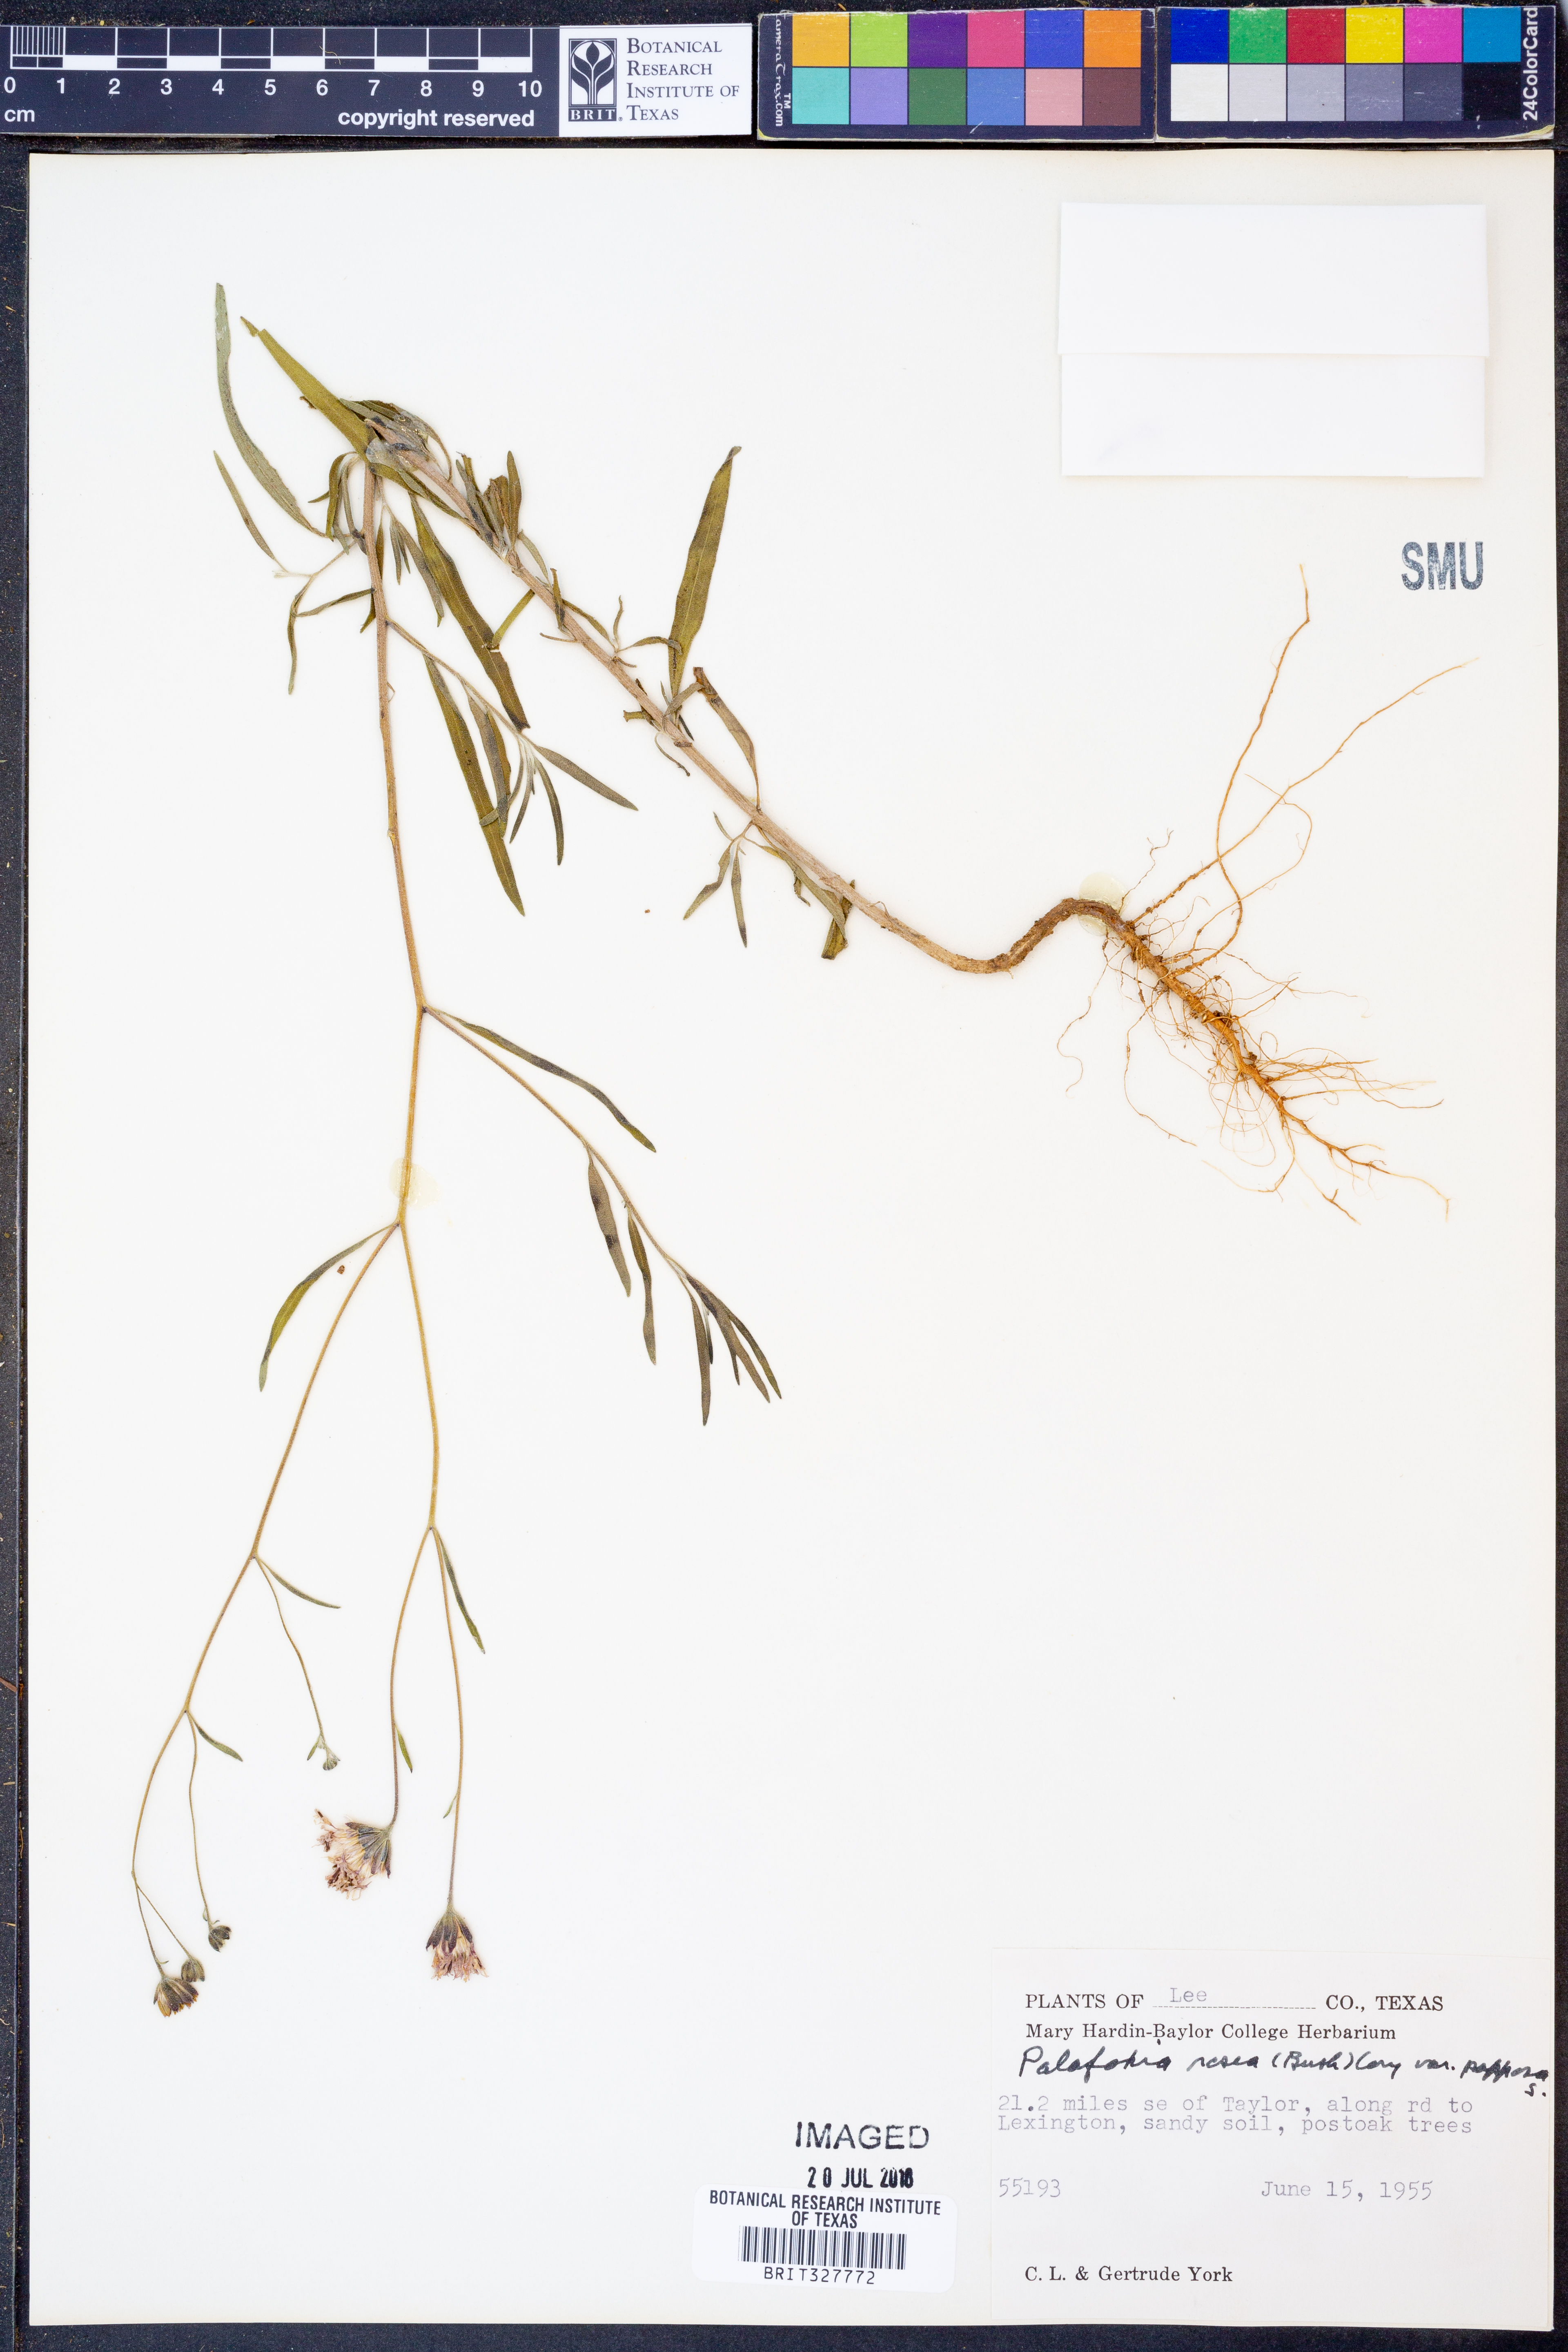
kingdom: Plantae
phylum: Tracheophyta
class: Magnoliopsida
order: Asterales
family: Asteraceae
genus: Palafoxia
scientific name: Palafoxia rosea
